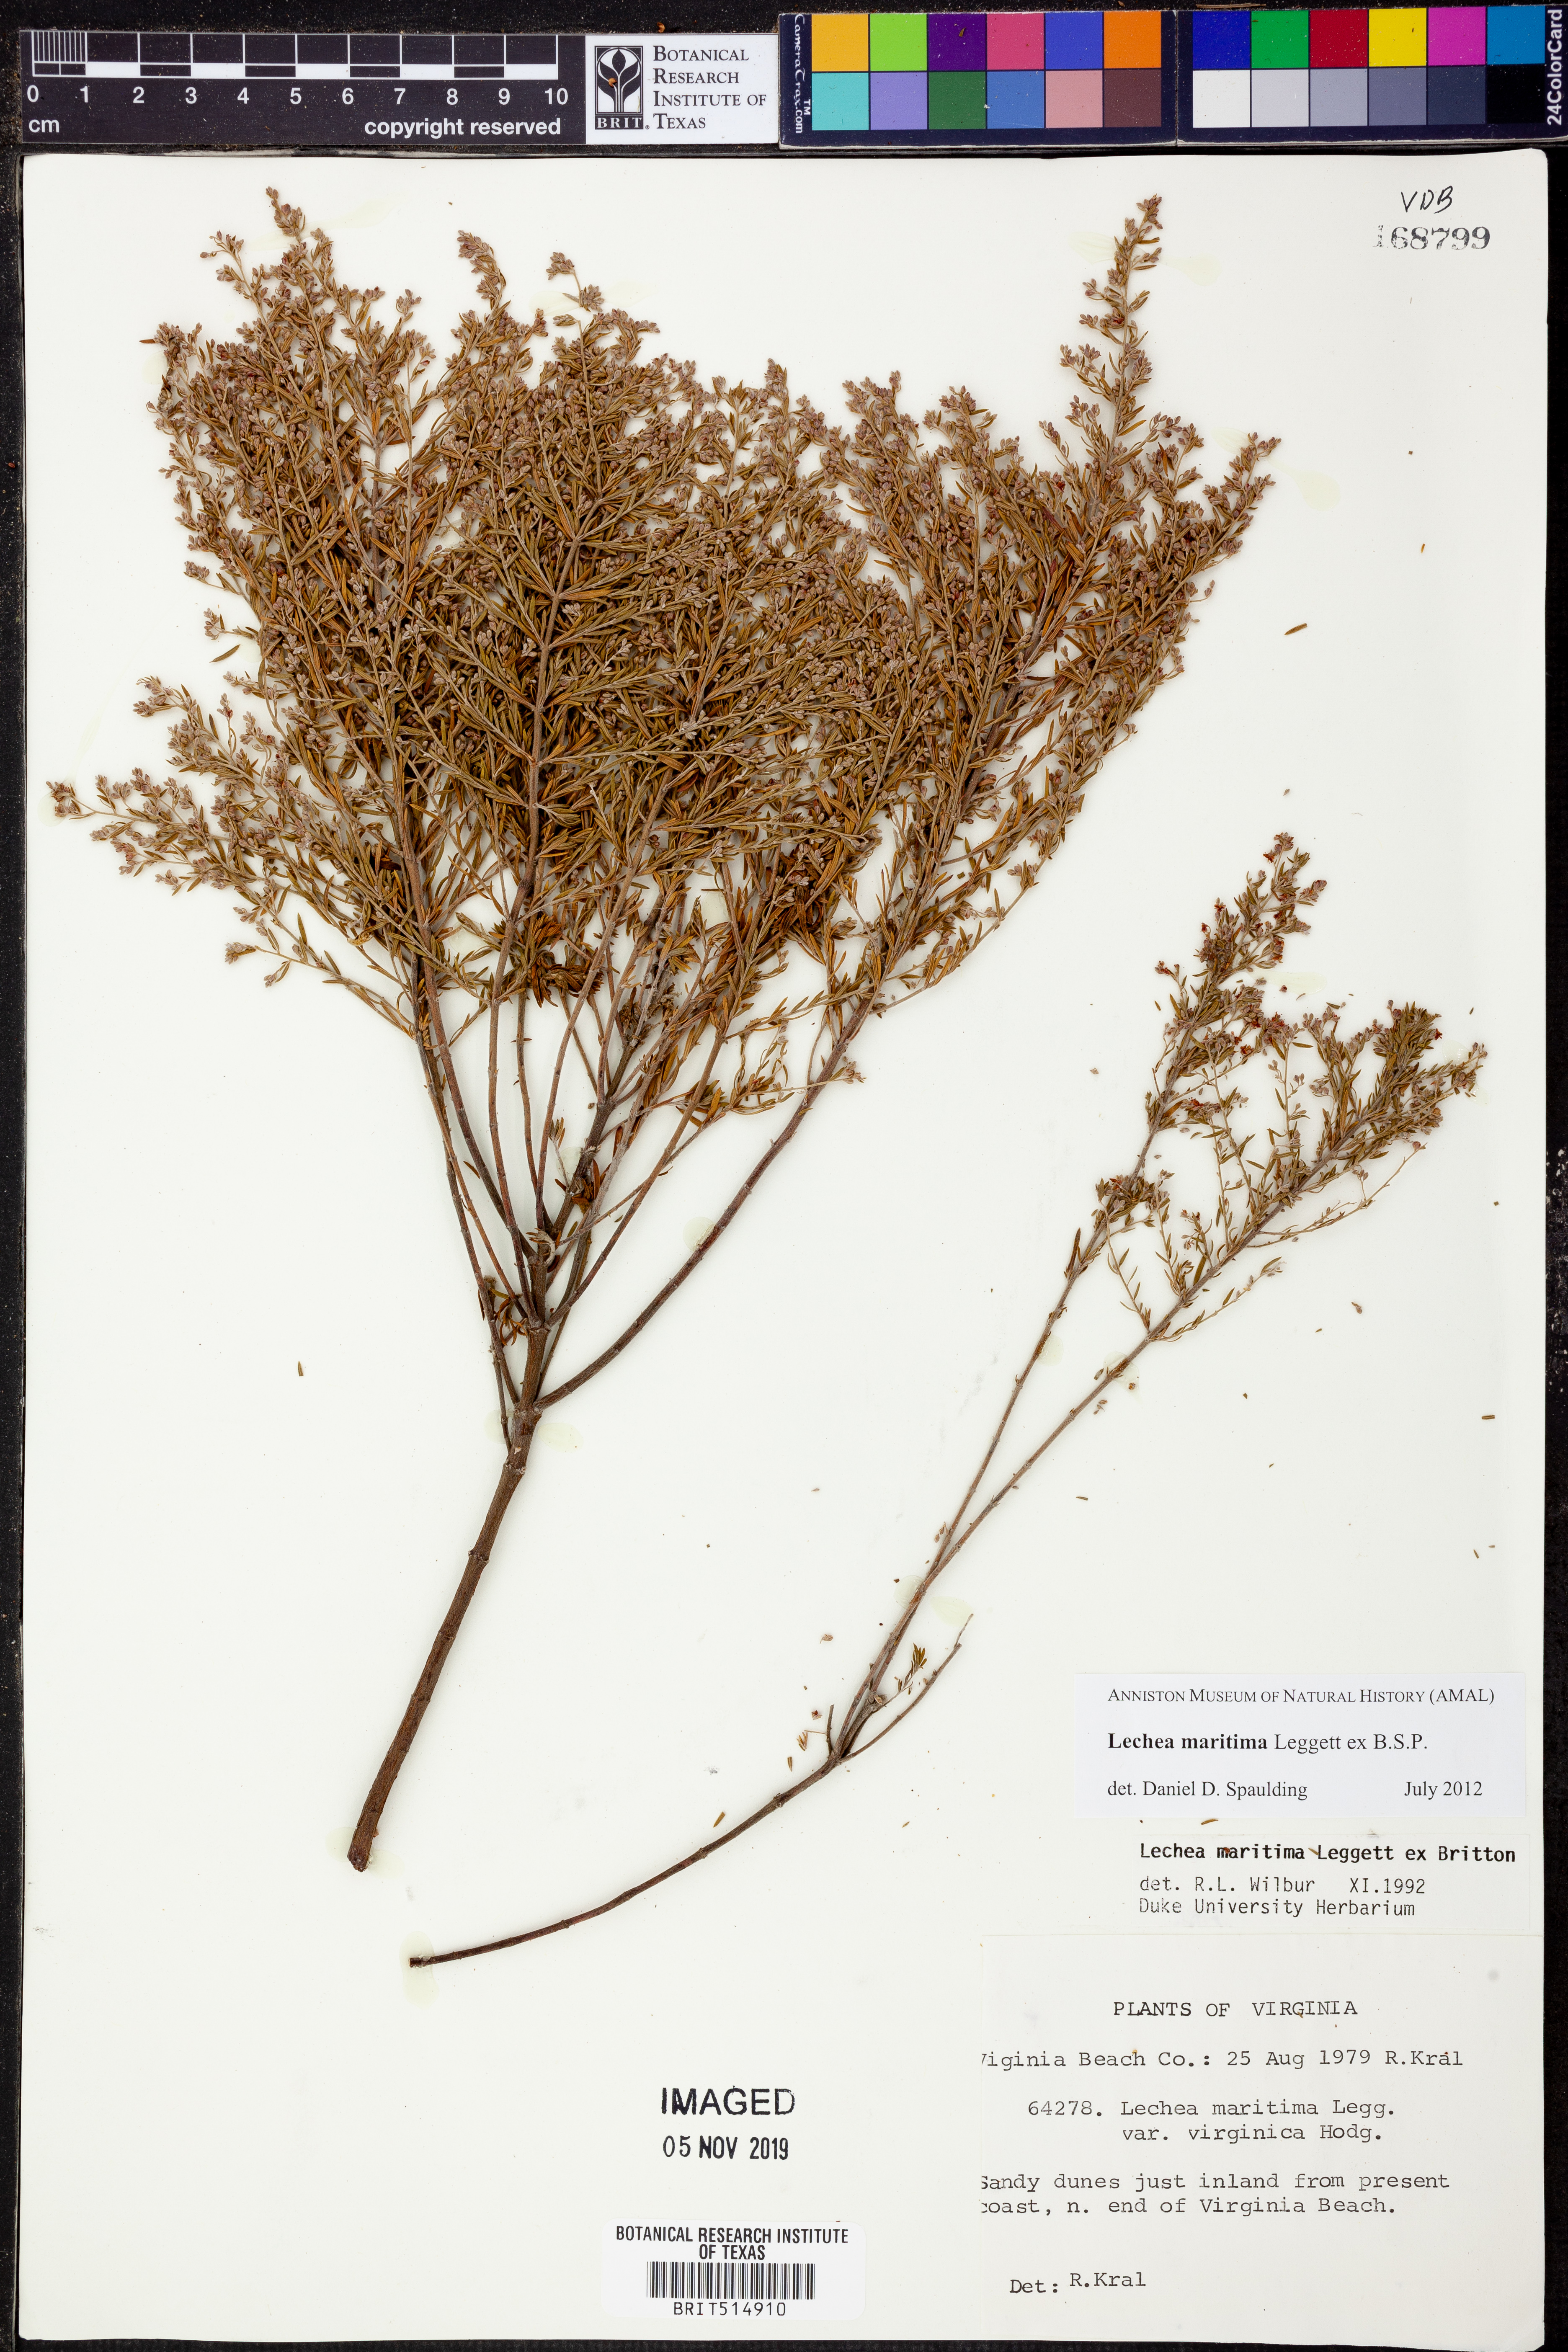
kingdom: Plantae
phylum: Tracheophyta
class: Magnoliopsida
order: Malvales
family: Cistaceae
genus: Lechea
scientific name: Lechea maritima
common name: Beach pinweed
